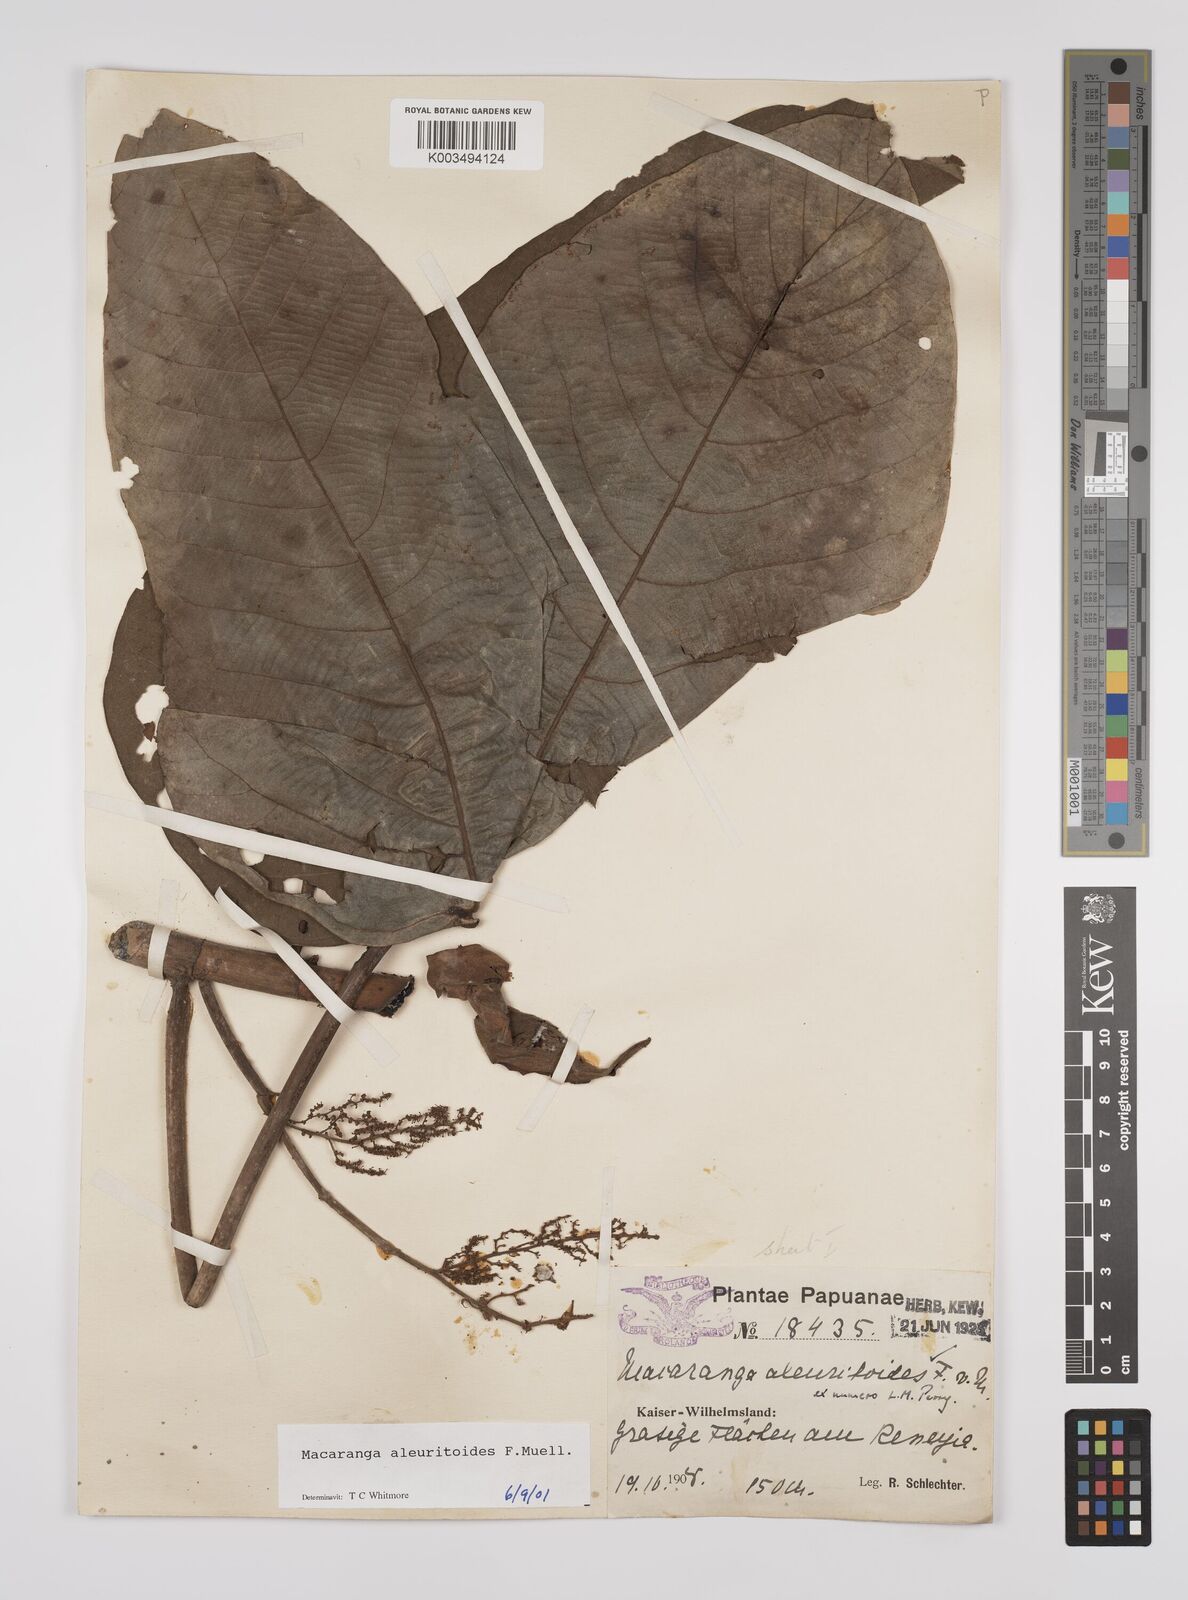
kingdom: Plantae
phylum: Tracheophyta
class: Magnoliopsida
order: Malpighiales
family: Euphorbiaceae
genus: Macaranga
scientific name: Macaranga aleuritoides
